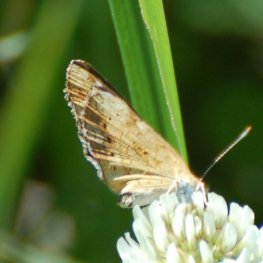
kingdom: Animalia
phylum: Arthropoda
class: Insecta
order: Lepidoptera
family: Nymphalidae
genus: Phyciodes
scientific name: Phyciodes tharos
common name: Northern Crescent
